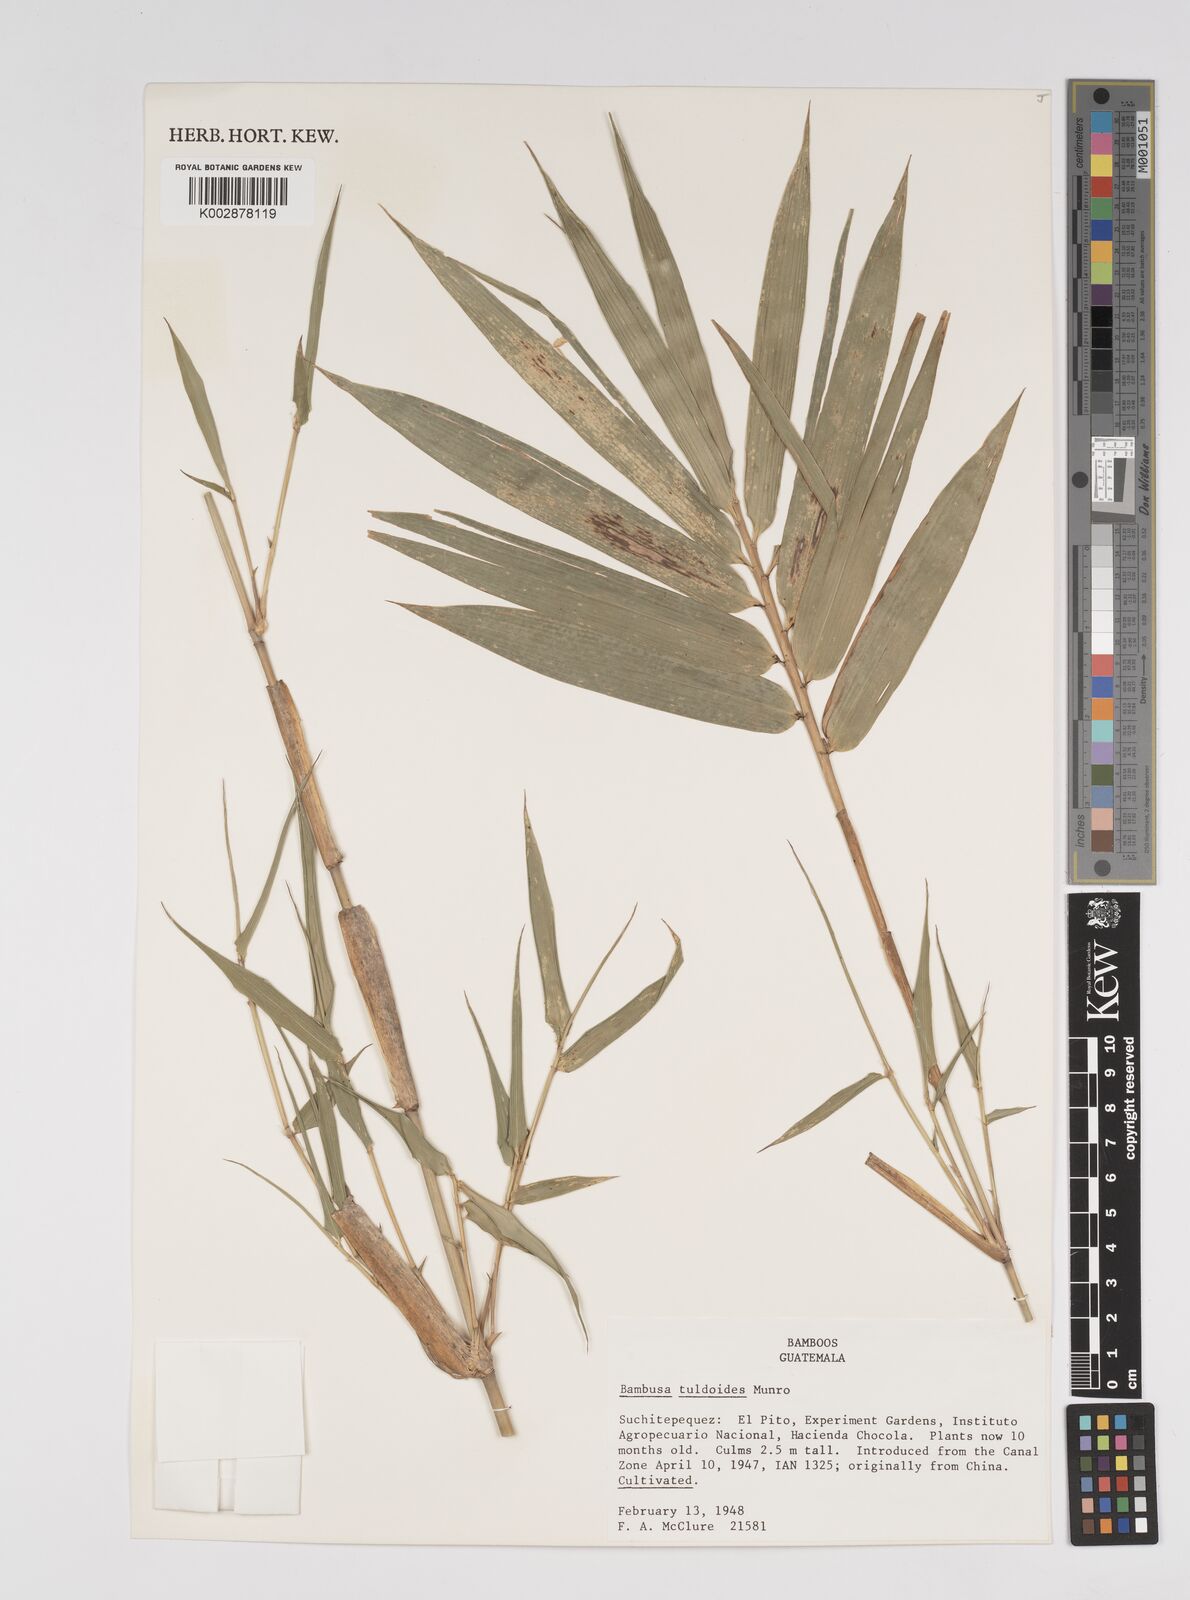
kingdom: Plantae
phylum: Tracheophyta
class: Liliopsida
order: Poales
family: Poaceae
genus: Bambusa
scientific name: Bambusa tuldoides
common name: Verdant bamboo
